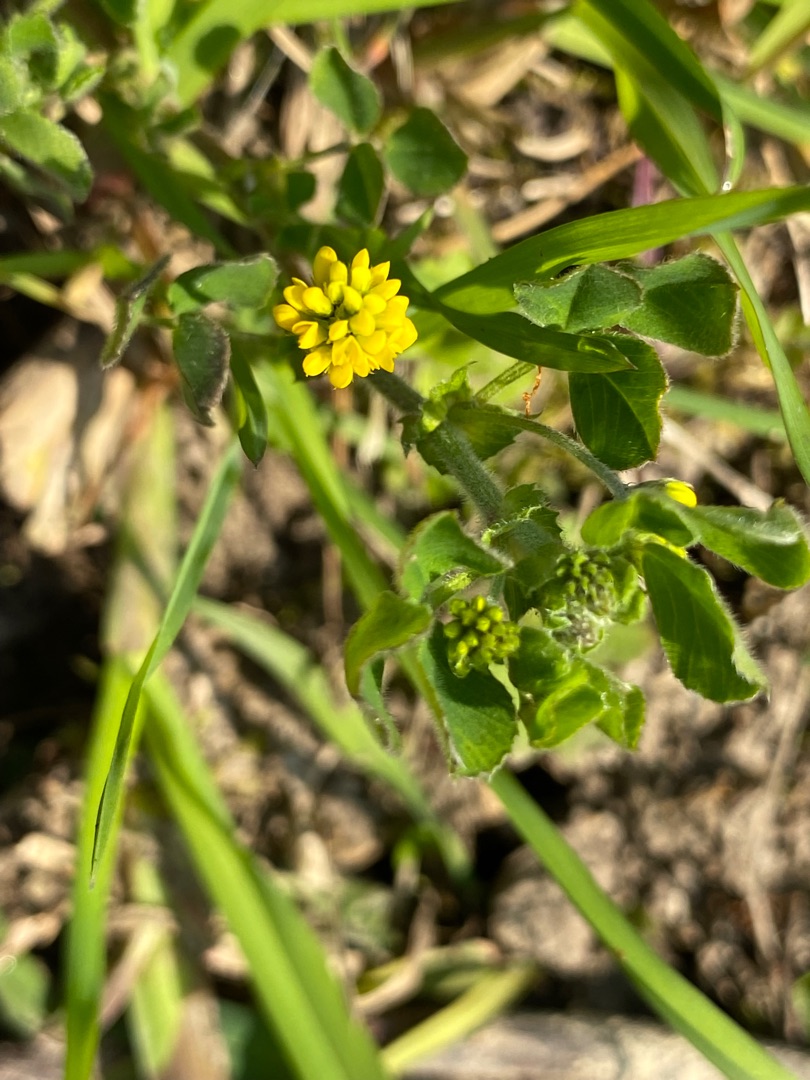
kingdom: Plantae
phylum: Tracheophyta
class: Magnoliopsida
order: Fabales
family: Fabaceae
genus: Medicago
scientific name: Medicago lupulina
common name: Humle-sneglebælg
